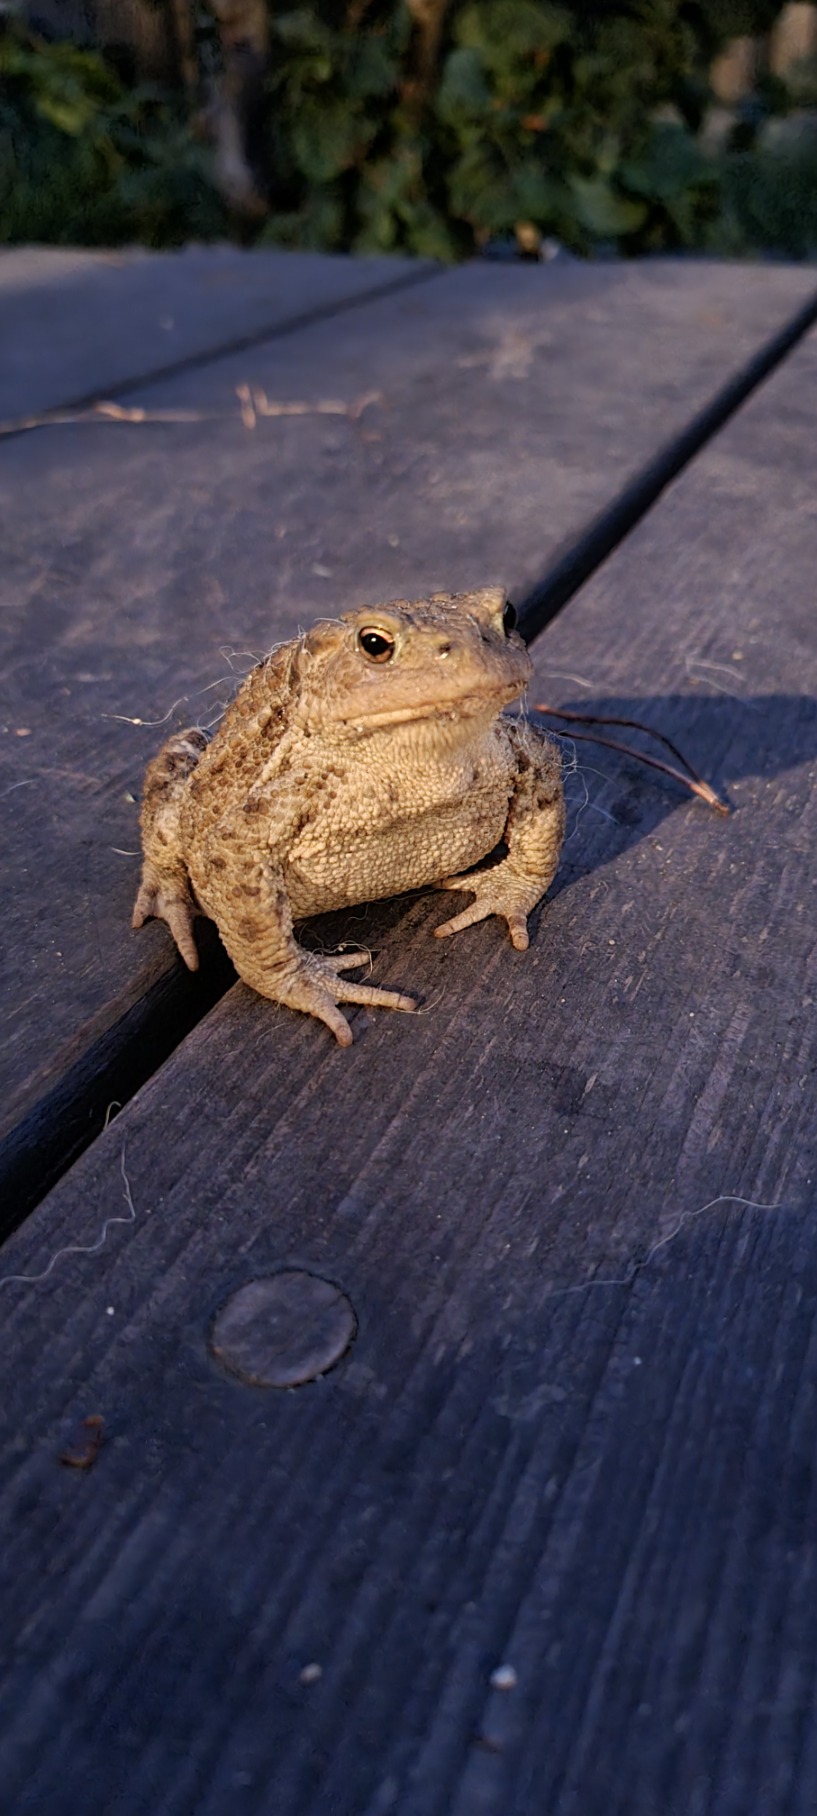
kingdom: Animalia
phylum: Chordata
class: Amphibia
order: Anura
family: Bufonidae
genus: Bufo
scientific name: Bufo bufo
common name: Skrubtudse
